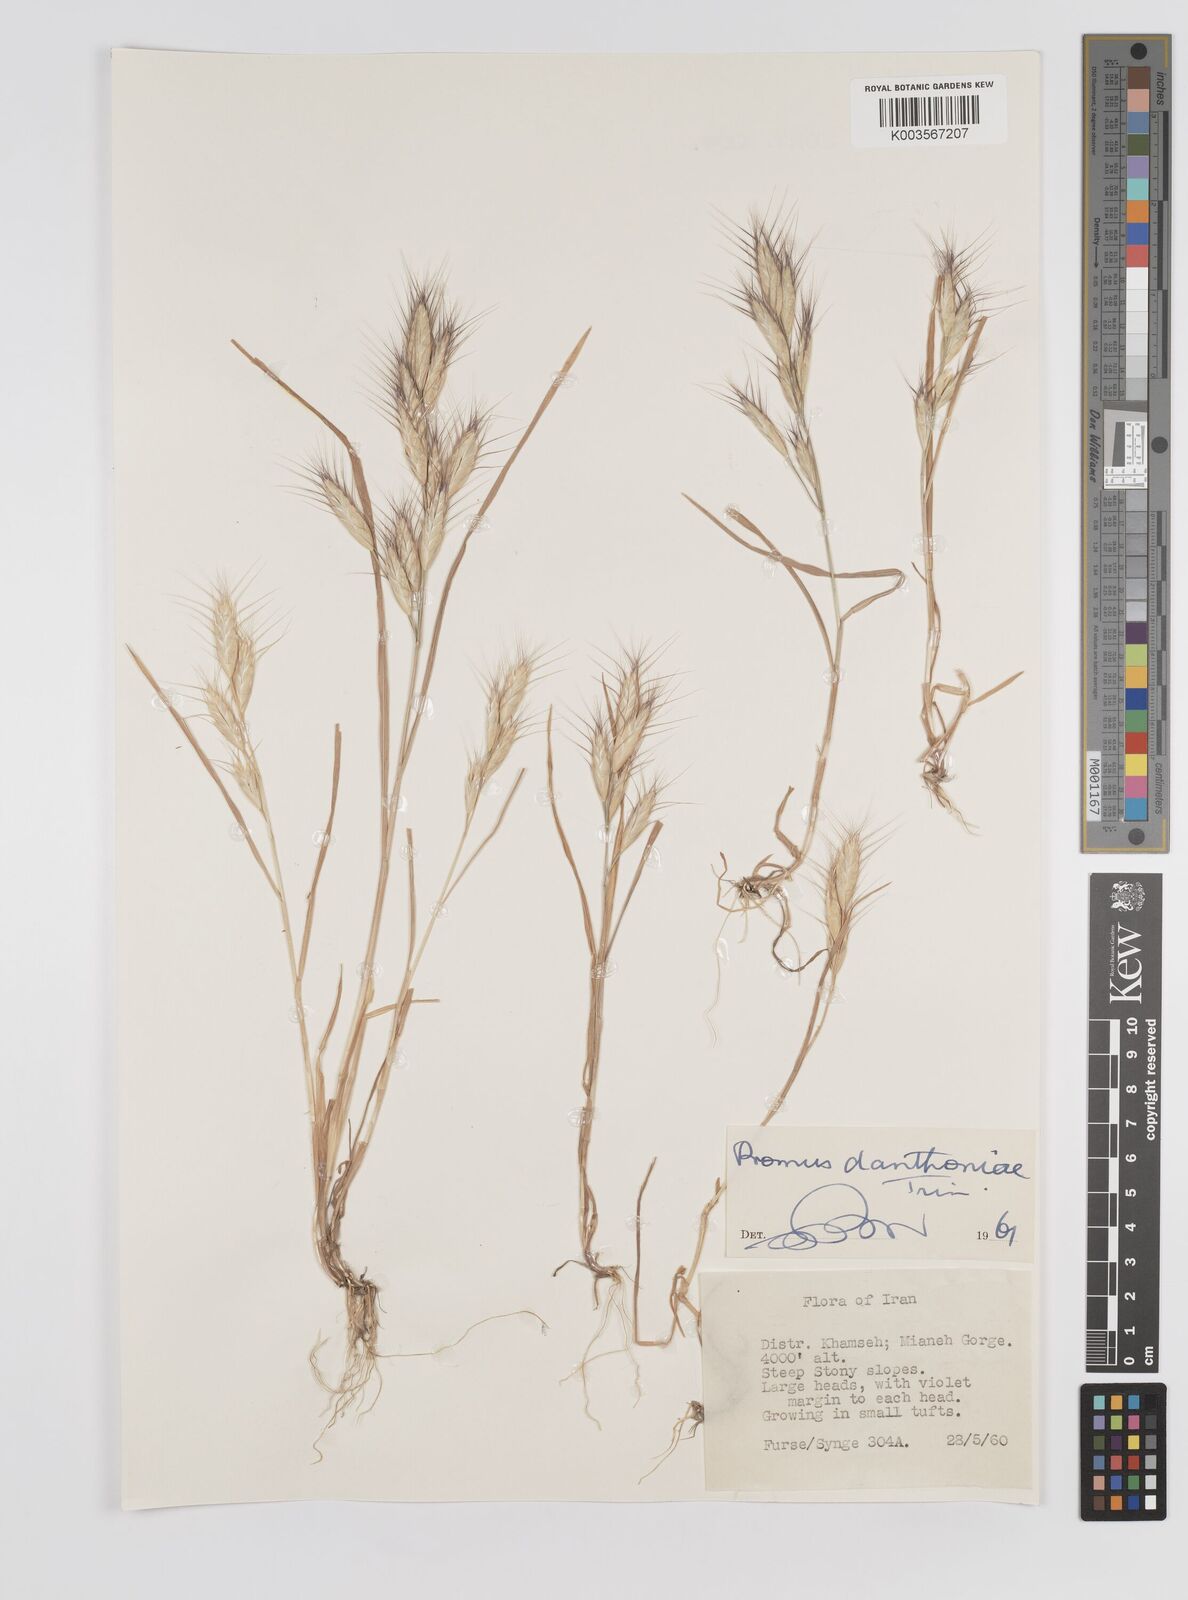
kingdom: Plantae
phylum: Tracheophyta
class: Liliopsida
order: Poales
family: Poaceae
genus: Bromus
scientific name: Bromus danthoniae
